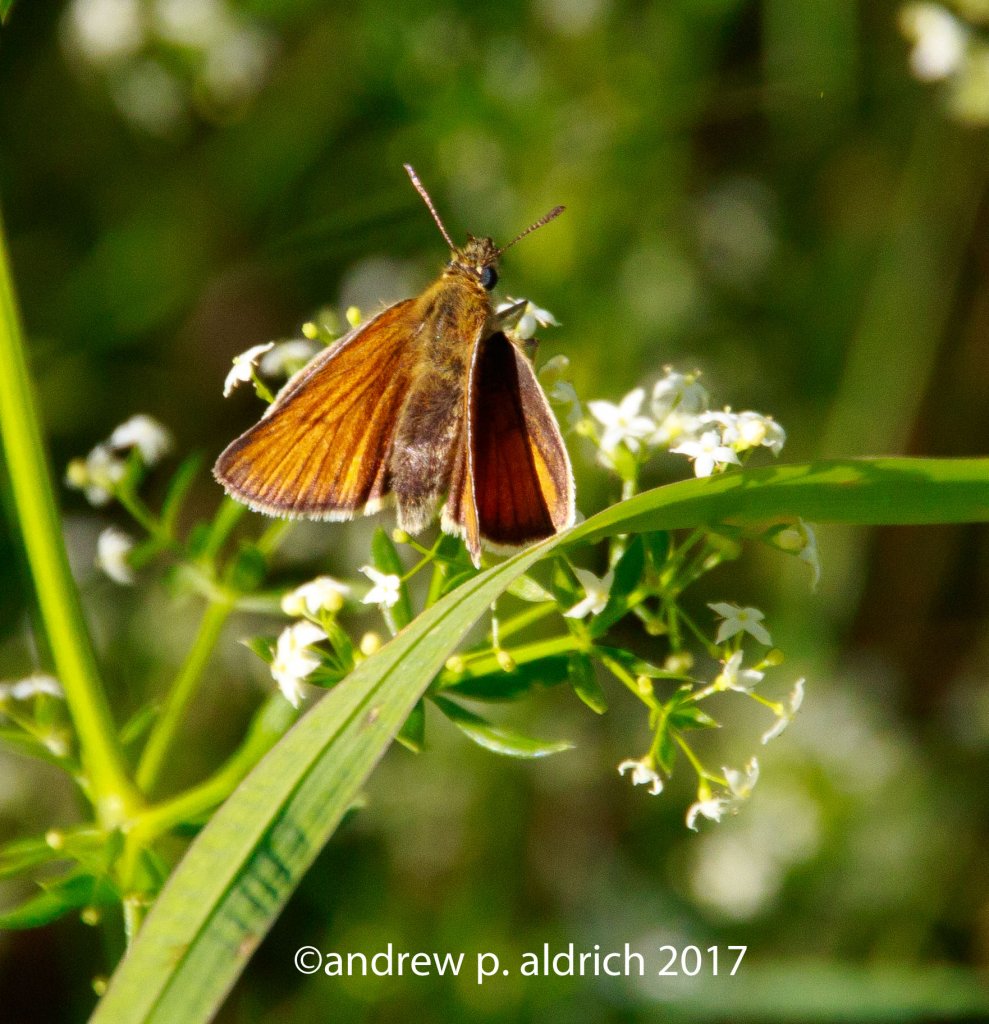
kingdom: Animalia
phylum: Arthropoda
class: Insecta
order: Lepidoptera
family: Hesperiidae
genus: Thymelicus
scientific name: Thymelicus lineola
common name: European Skipper
